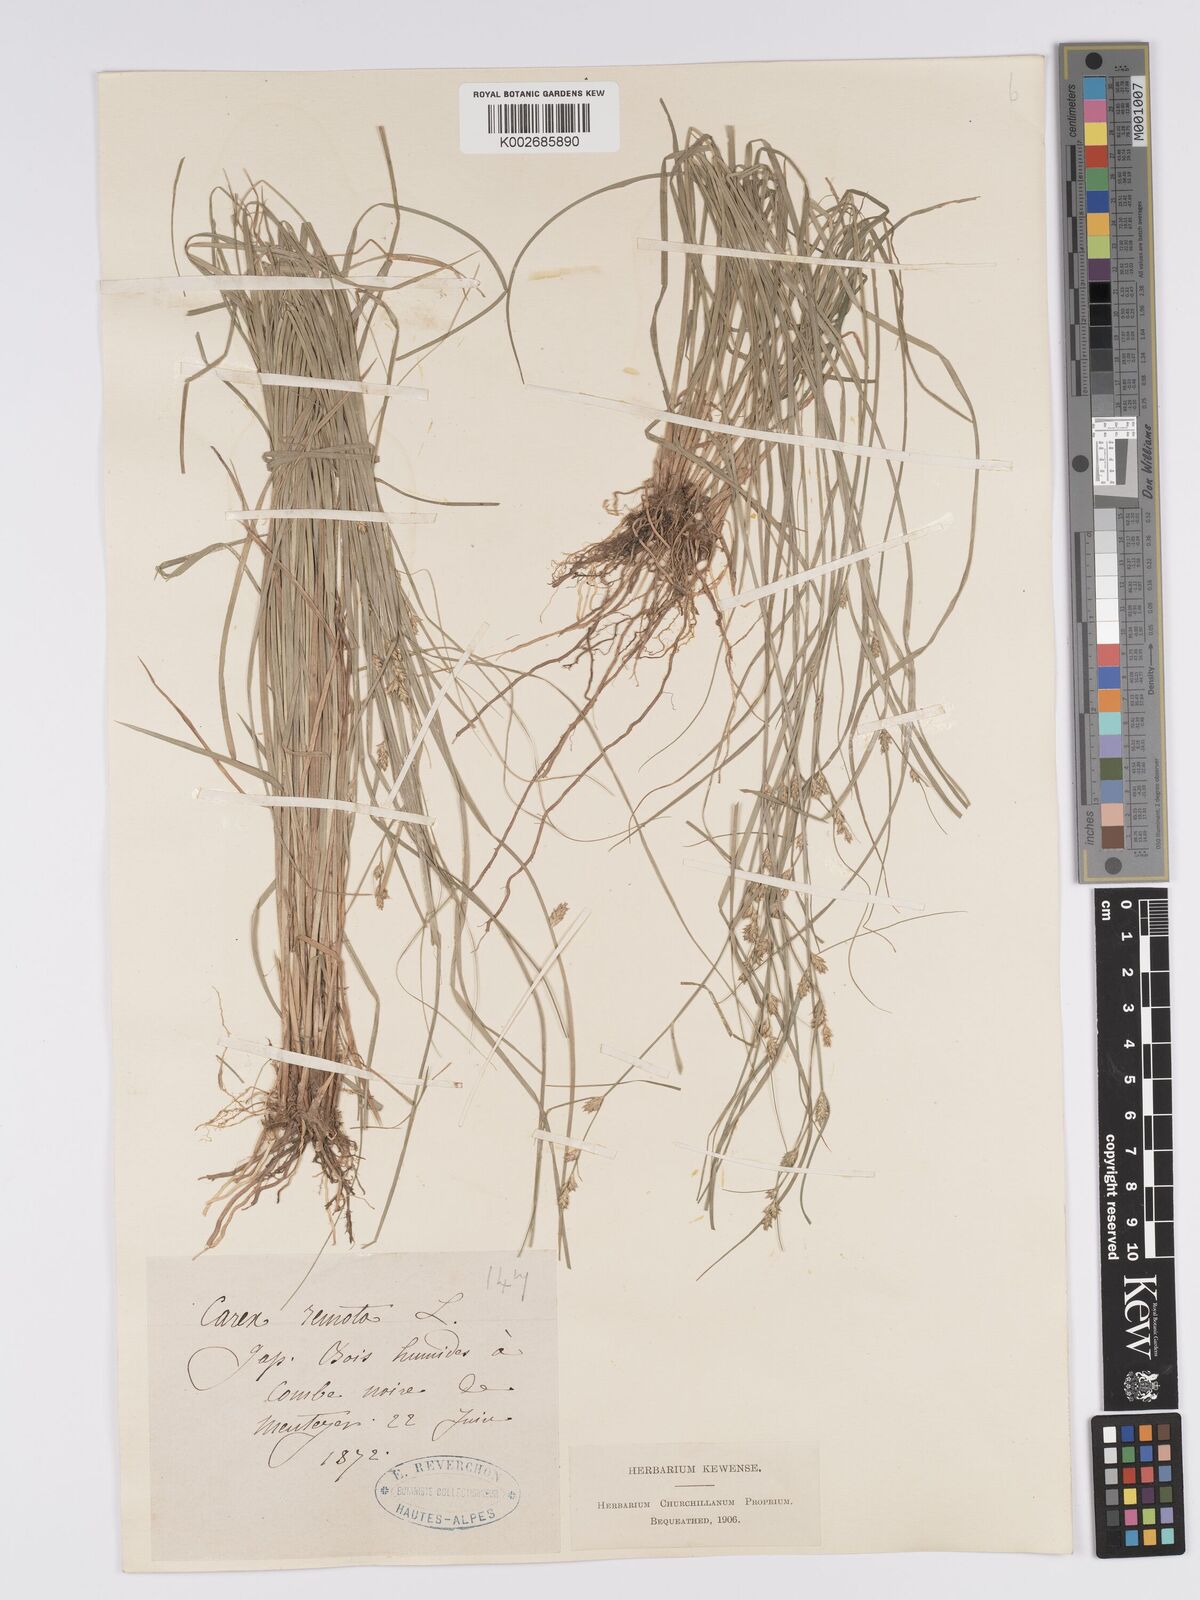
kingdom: Plantae
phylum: Tracheophyta
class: Liliopsida
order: Poales
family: Cyperaceae
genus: Carex
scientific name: Carex remota
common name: Remote sedge
